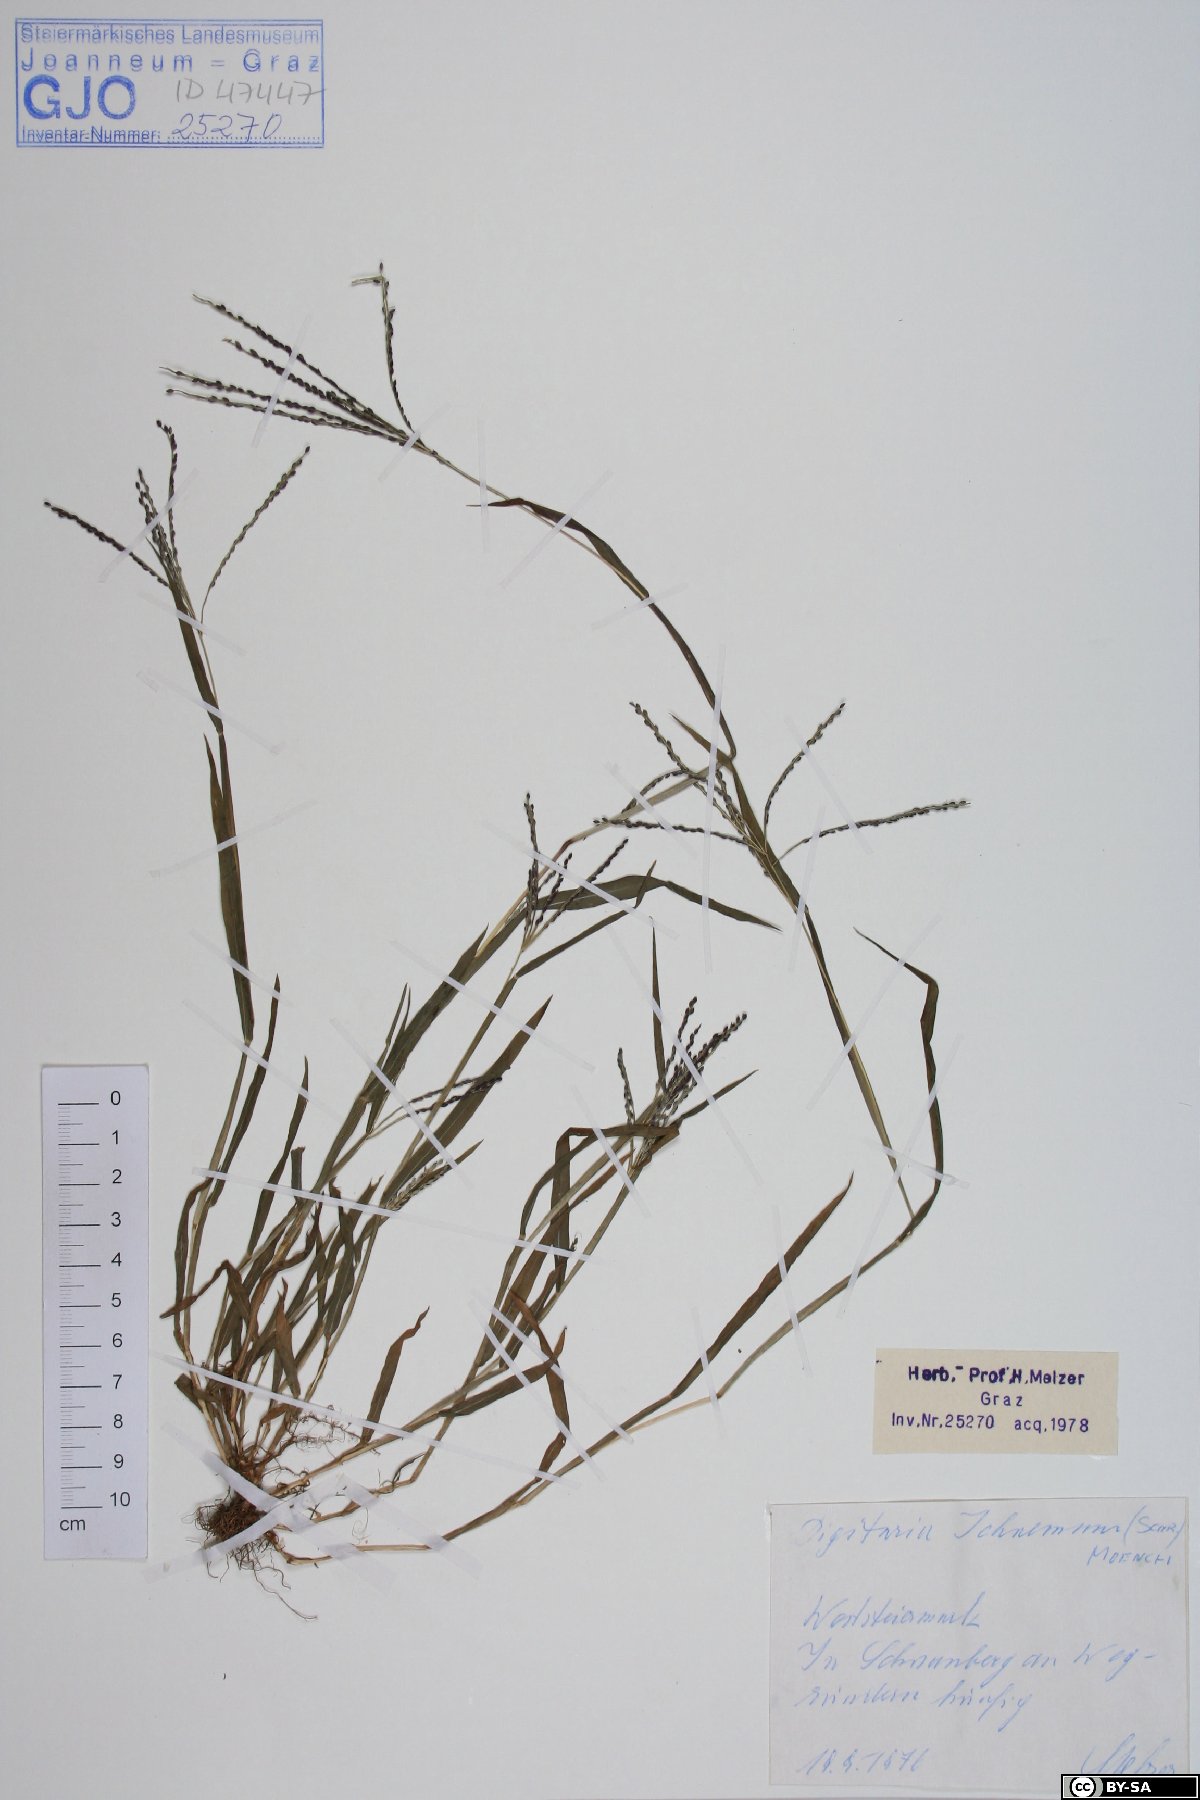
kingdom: Plantae
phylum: Tracheophyta
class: Liliopsida
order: Poales
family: Poaceae
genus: Digitaria
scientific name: Digitaria ischaemum
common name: Smooth crabgrass
